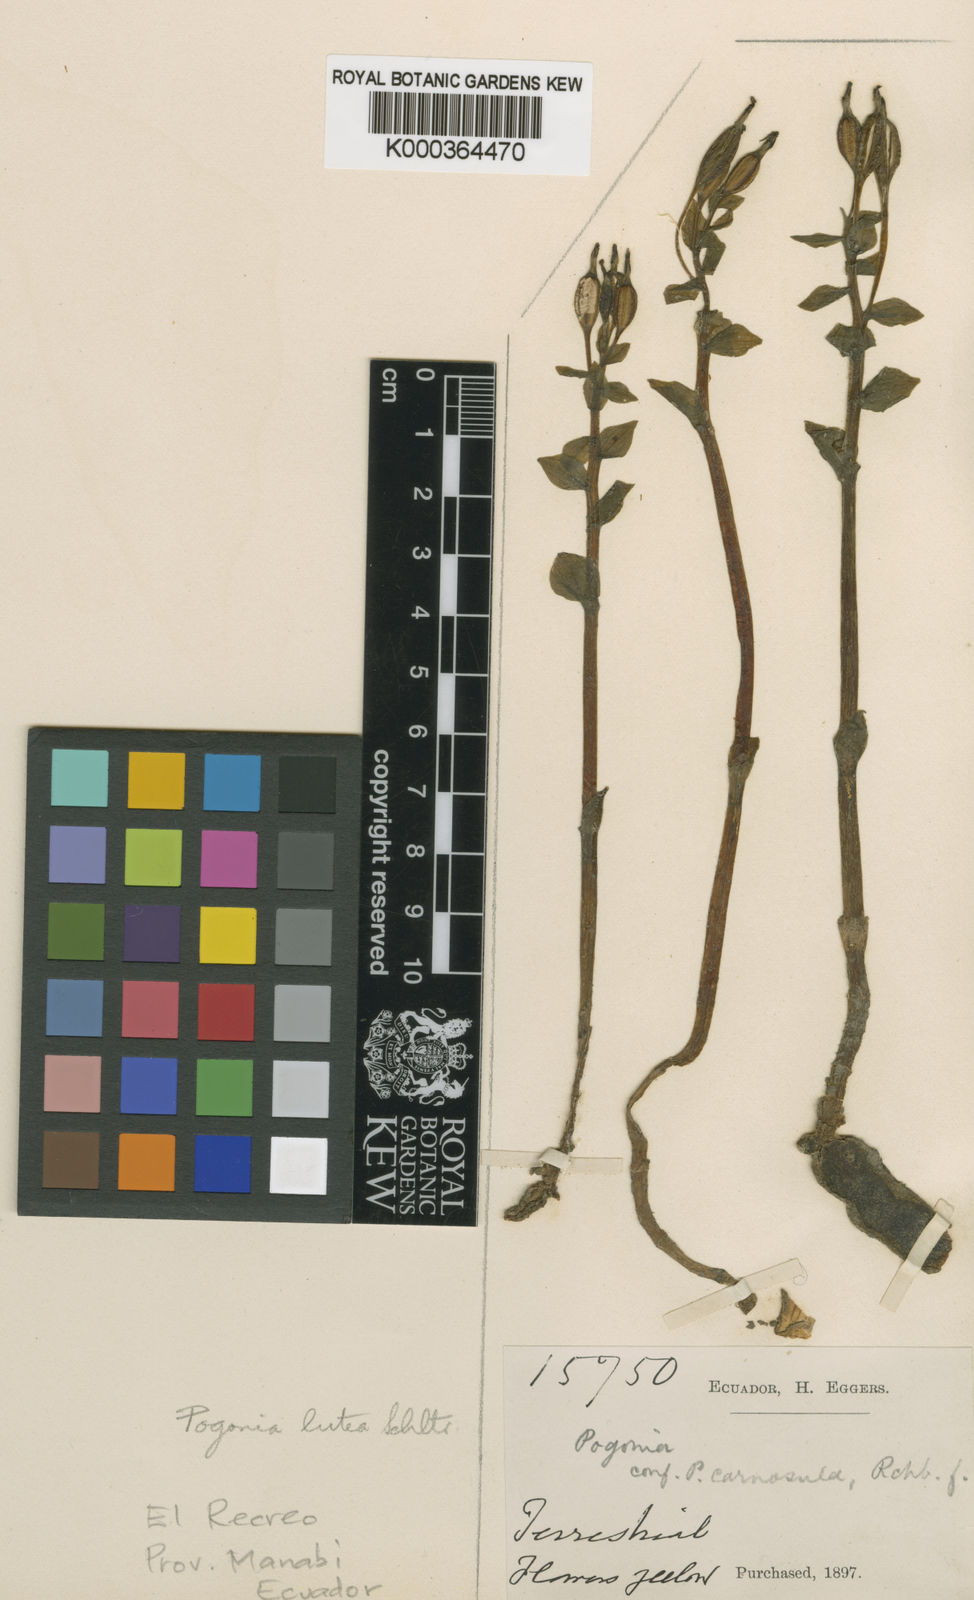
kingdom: Plantae
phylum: Tracheophyta
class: Liliopsida
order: Asparagales
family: Orchidaceae
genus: Triphora
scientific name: Triphora gentianoides
